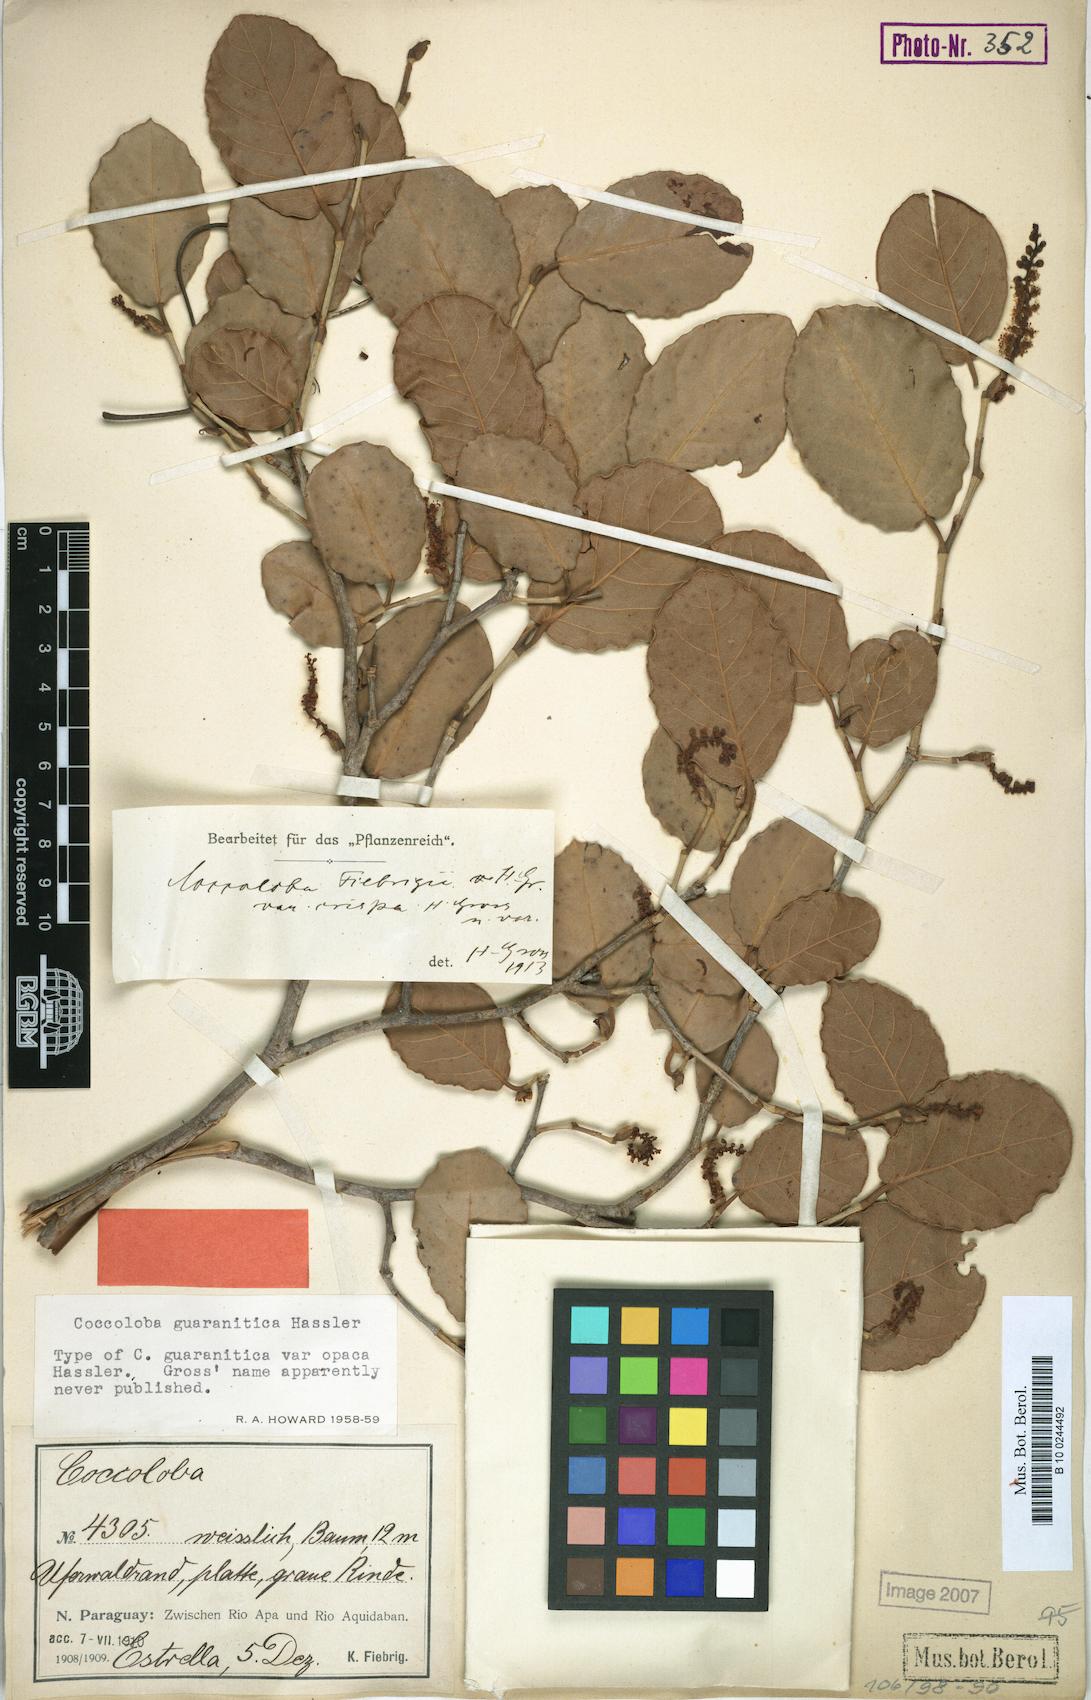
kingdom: Plantae
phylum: Tracheophyta
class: Magnoliopsida
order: Caryophyllales
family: Polygonaceae
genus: Coccoloba
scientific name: Coccoloba guaranitica
